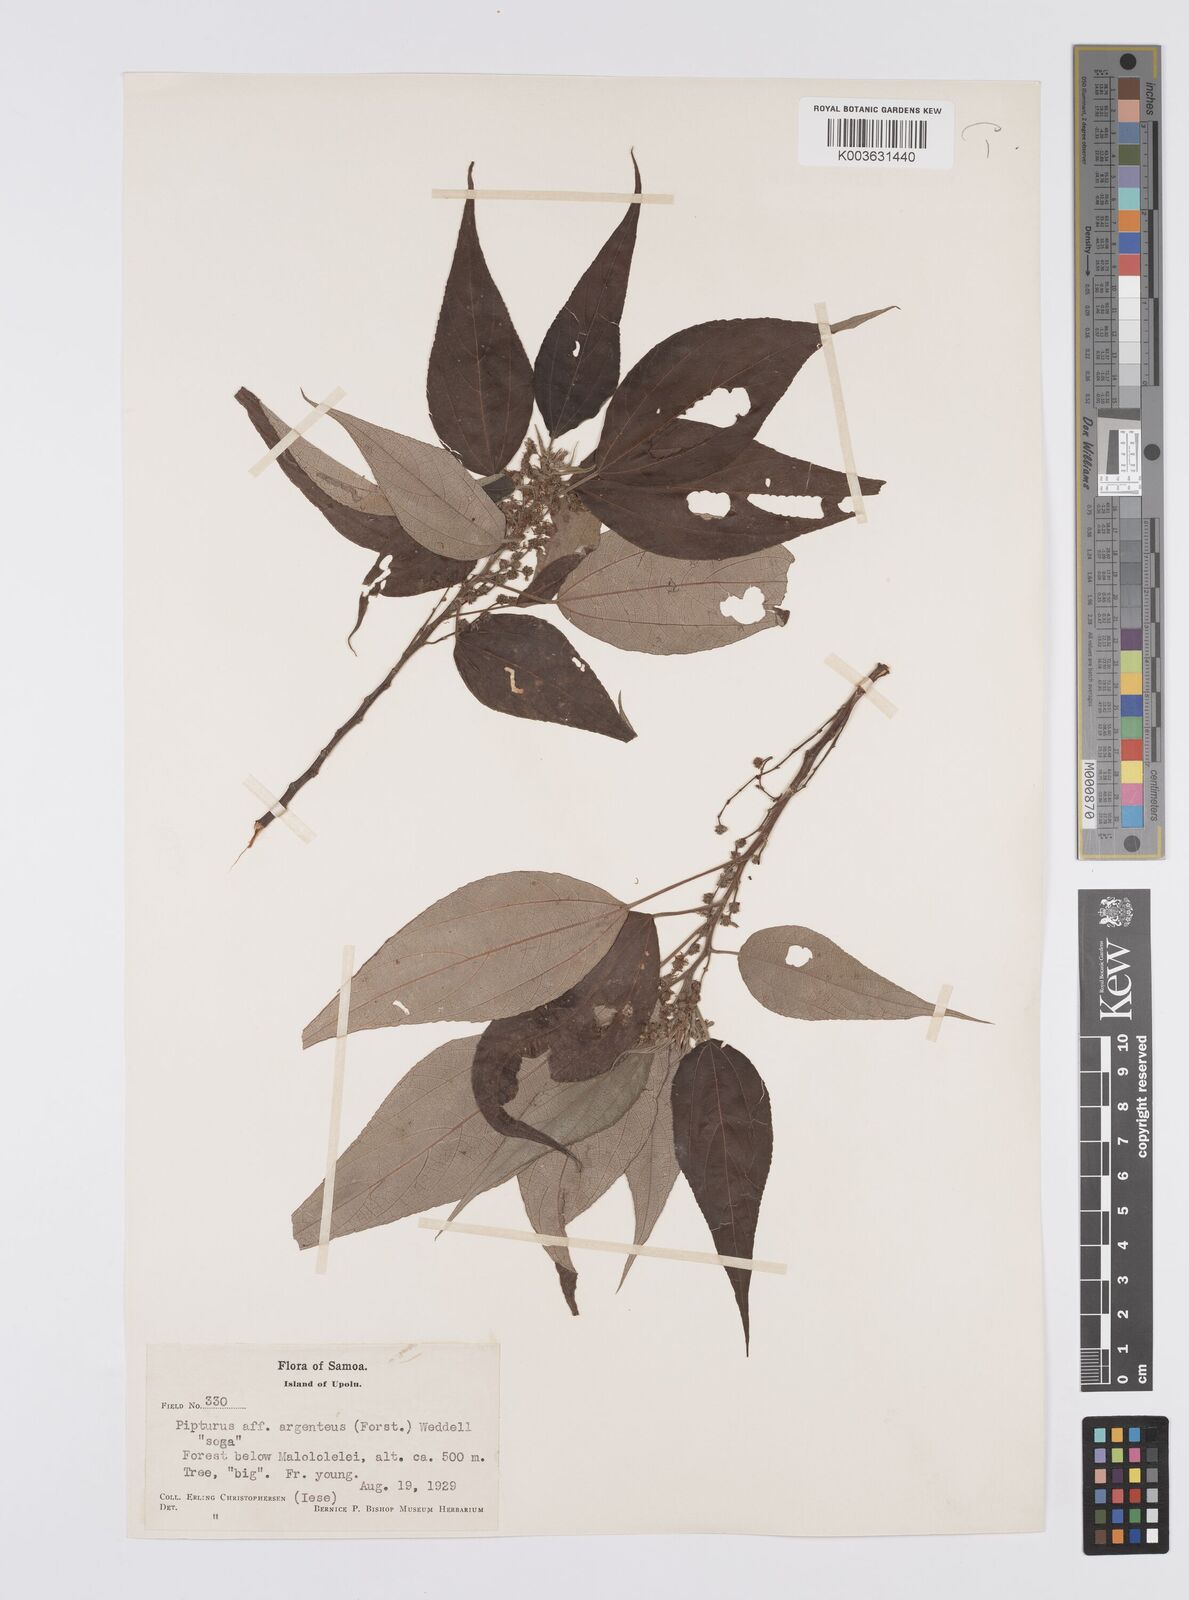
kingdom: Plantae
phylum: Tracheophyta
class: Magnoliopsida
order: Rosales
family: Urticaceae
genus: Pipturus
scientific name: Pipturus argenteus
